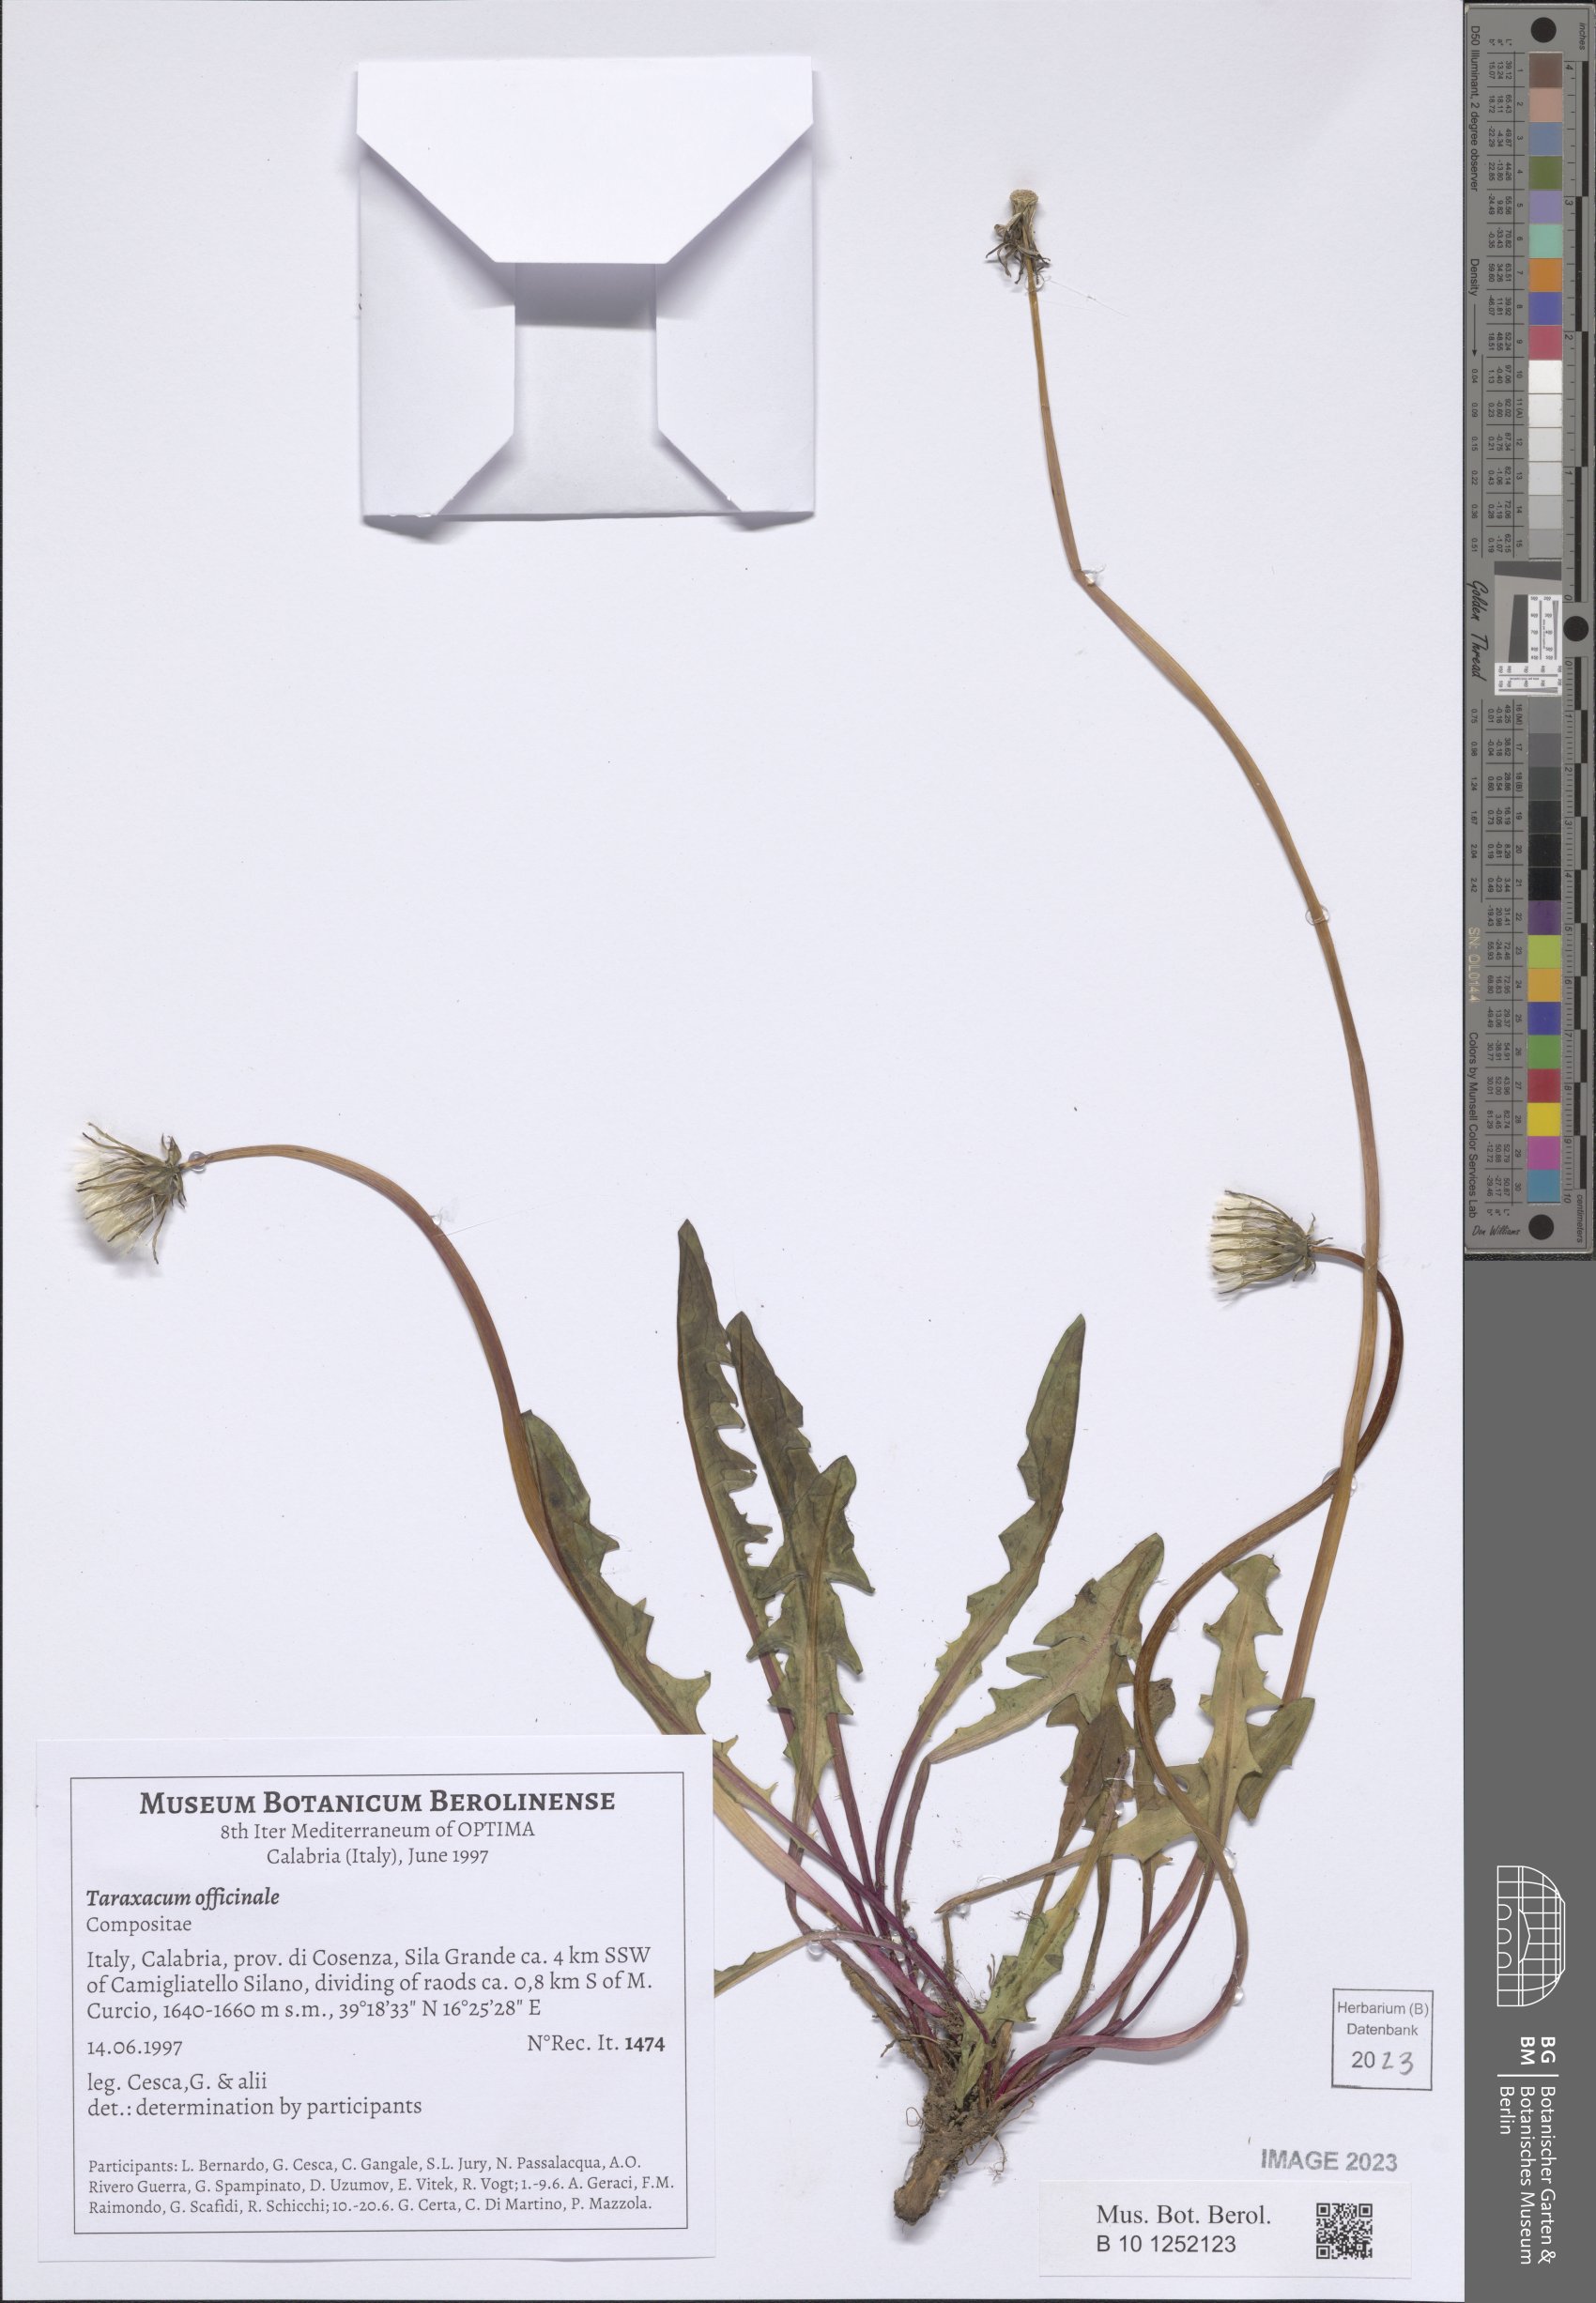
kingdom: Plantae
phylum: Tracheophyta
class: Magnoliopsida
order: Asterales
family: Asteraceae
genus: Taraxacum
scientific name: Taraxacum officinale
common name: Common dandelion
